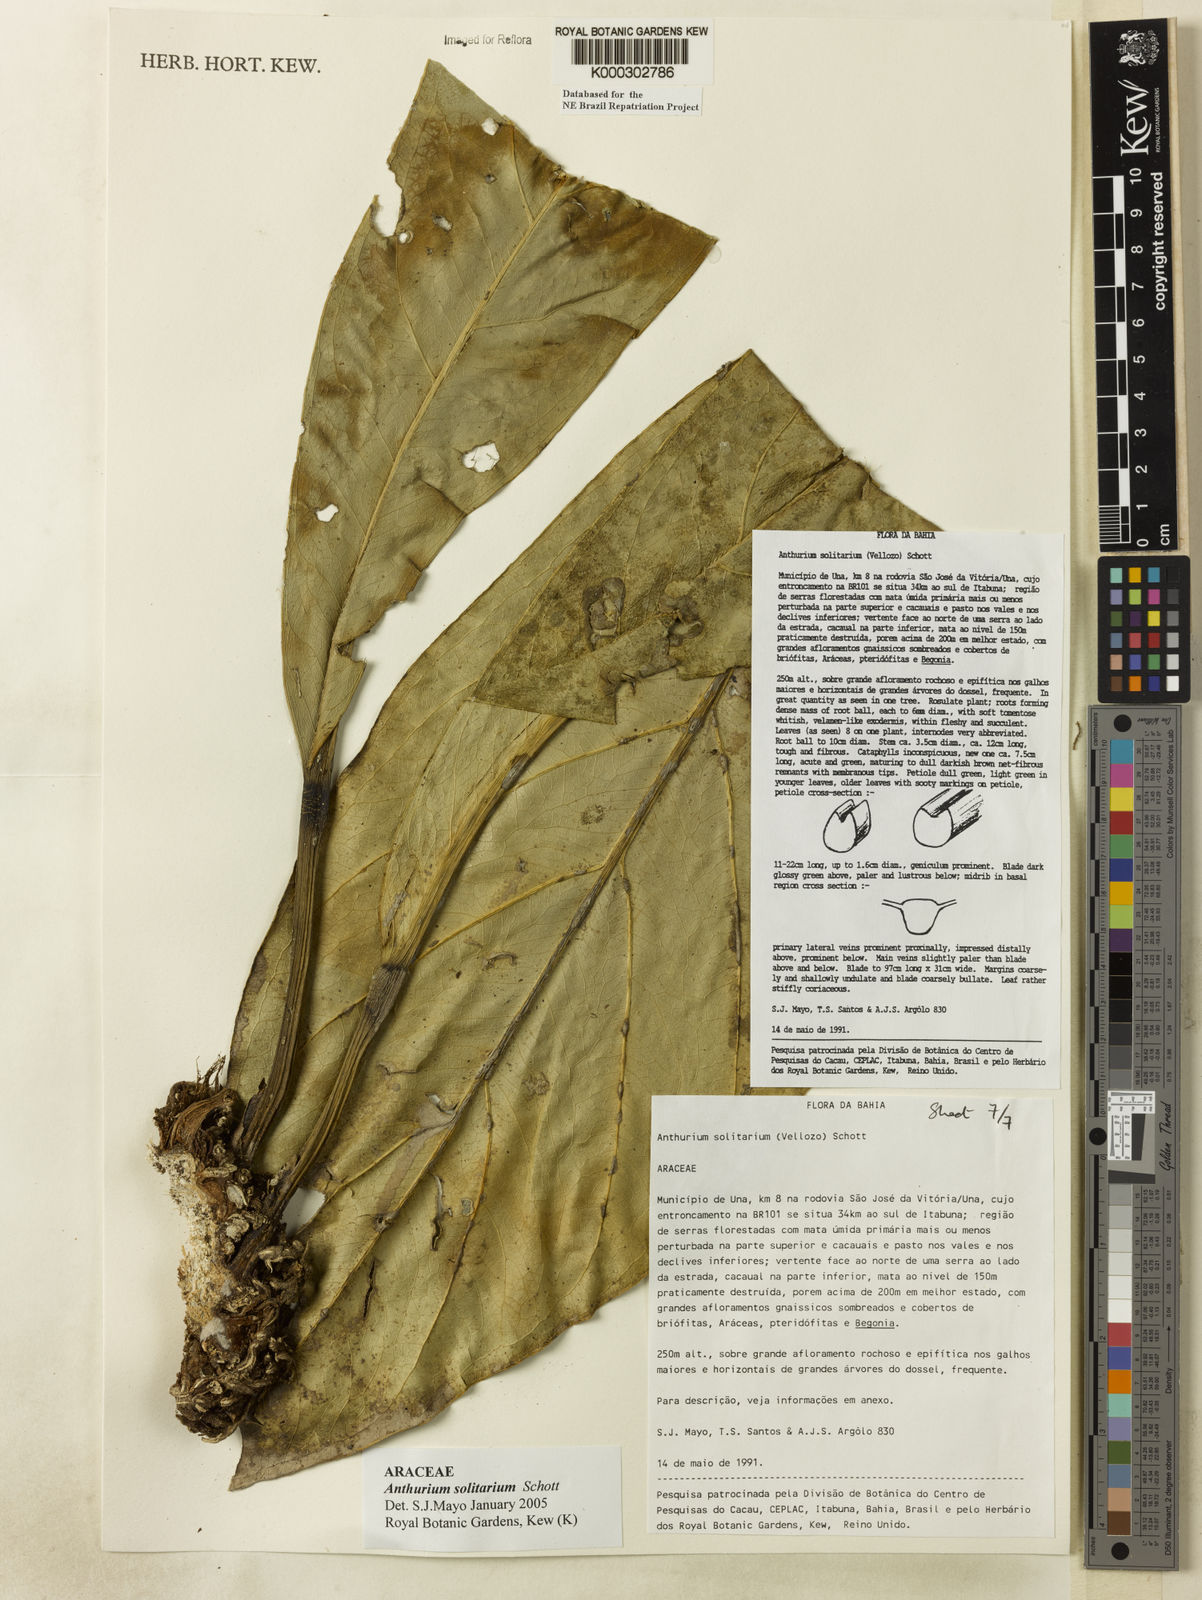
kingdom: Plantae
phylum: Tracheophyta
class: Liliopsida
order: Alismatales
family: Araceae
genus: Anthurium
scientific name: Anthurium solitarium
